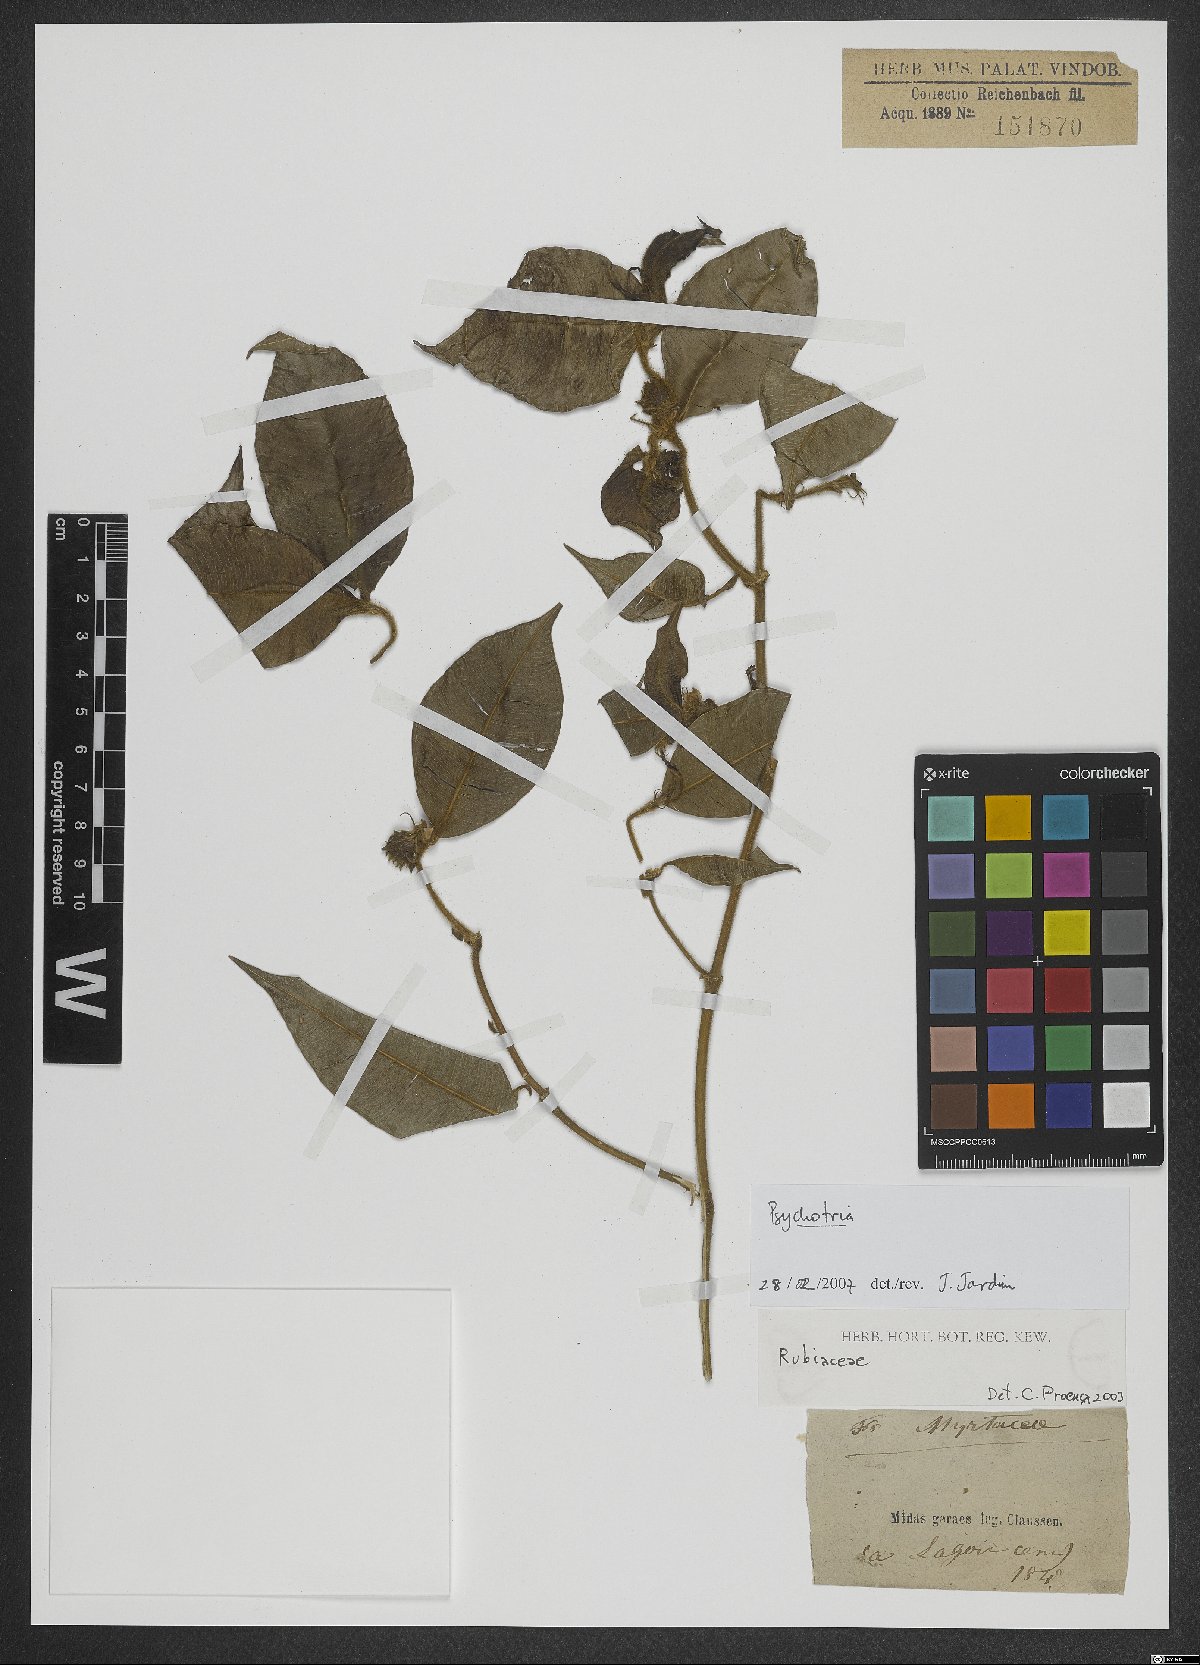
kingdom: Plantae
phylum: Tracheophyta
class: Magnoliopsida
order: Gentianales
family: Rubiaceae
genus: Psychotria
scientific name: Psychotria
